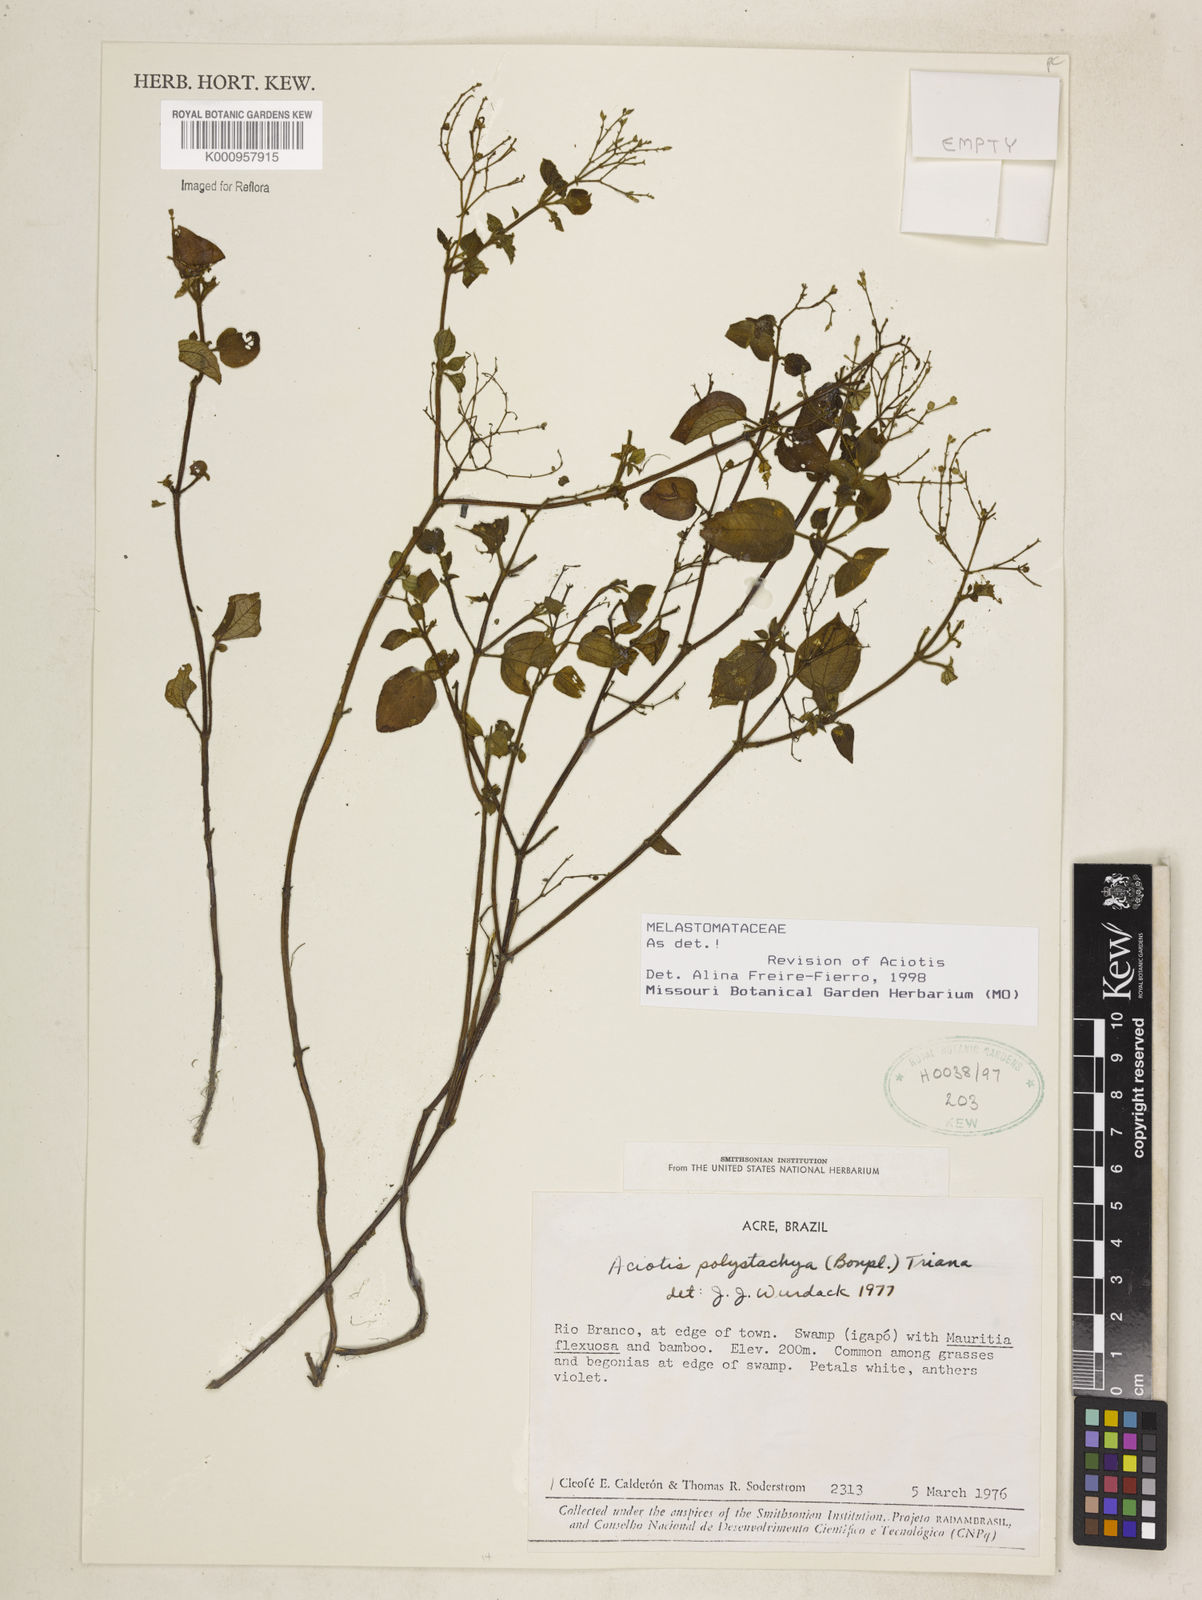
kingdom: Plantae
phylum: Tracheophyta
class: Magnoliopsida
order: Myrtales
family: Melastomataceae
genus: Aciotis
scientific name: Aciotis polystachya
